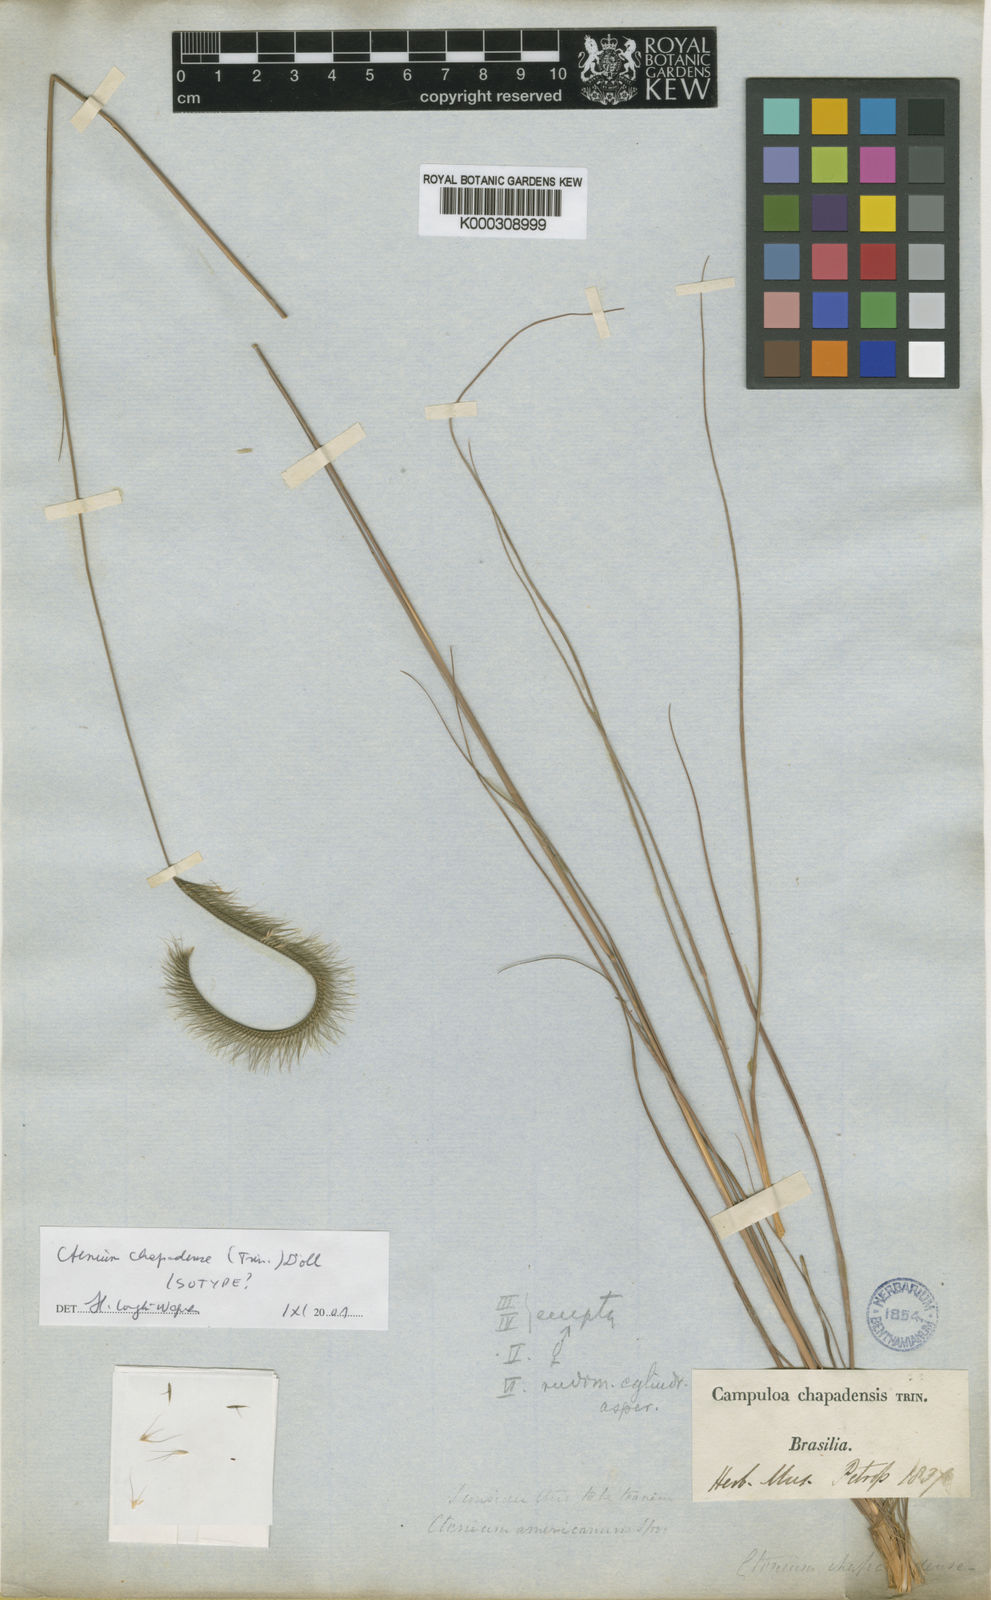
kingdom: Plantae
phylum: Tracheophyta
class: Liliopsida
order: Poales
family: Poaceae
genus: Ctenium
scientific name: Ctenium
